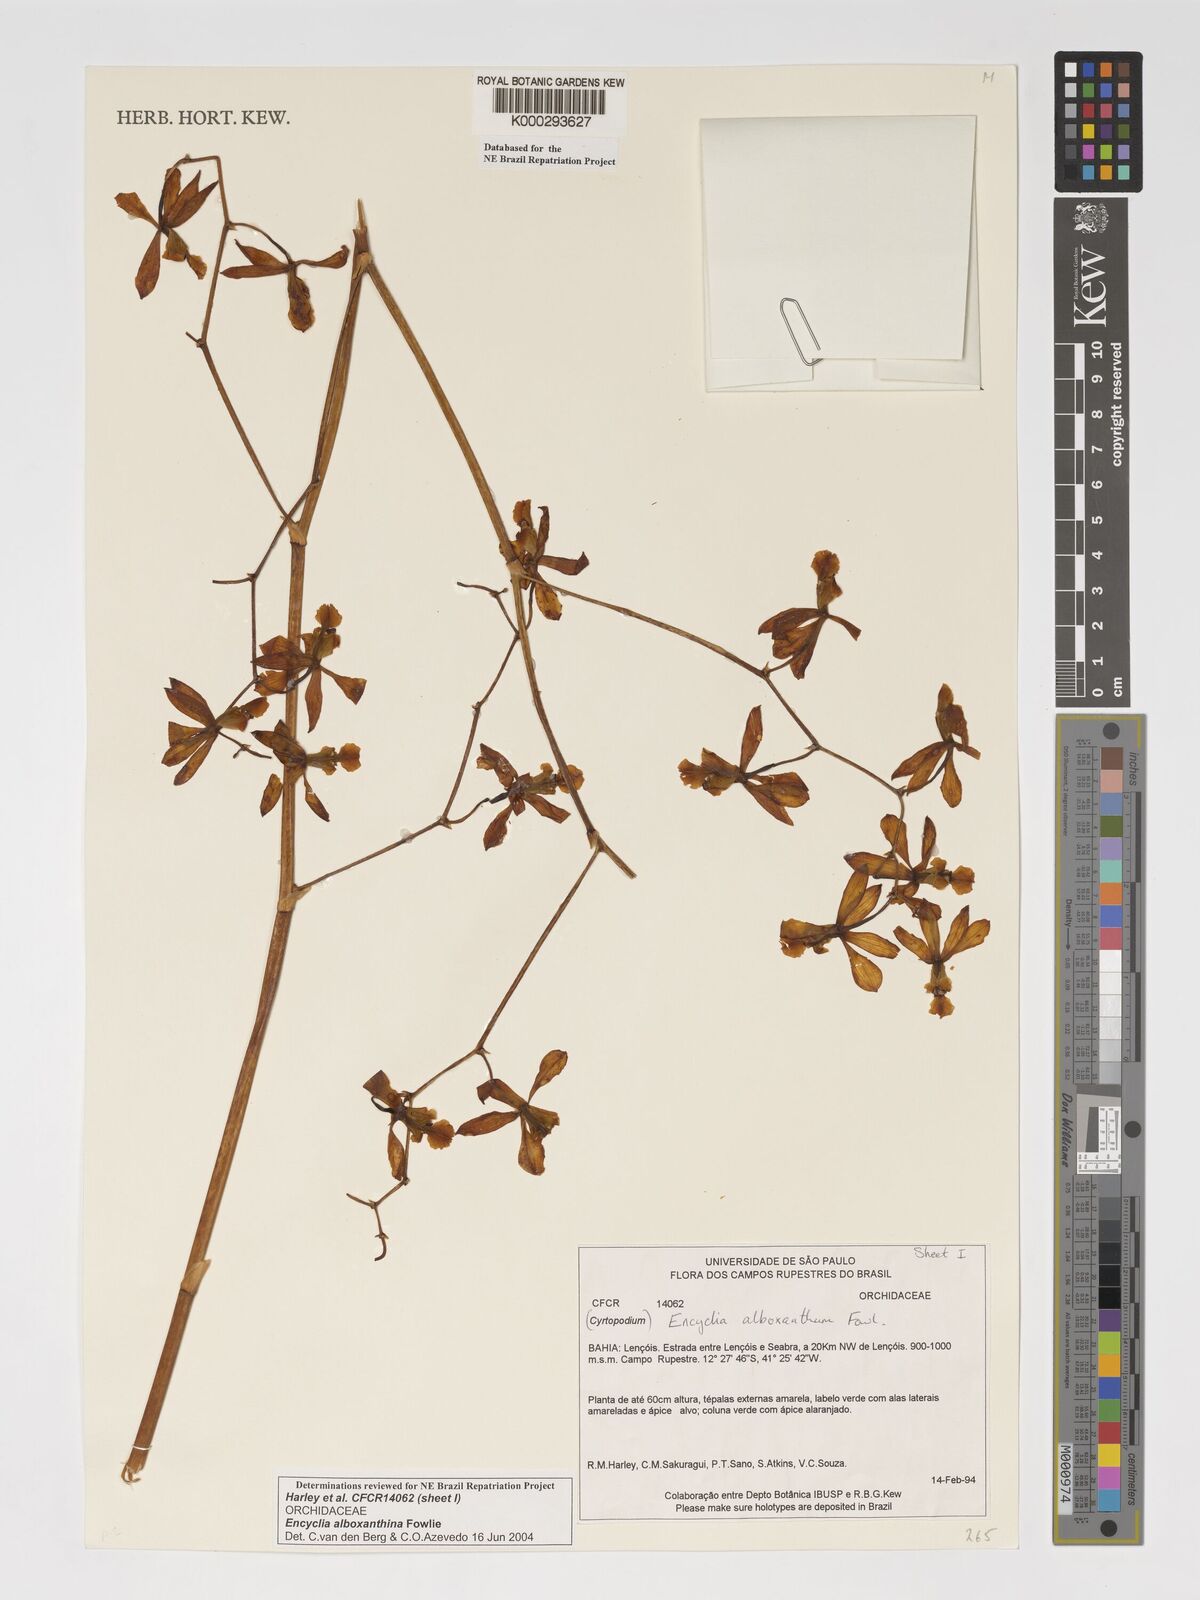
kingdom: Plantae
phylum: Tracheophyta
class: Liliopsida
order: Asparagales
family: Orchidaceae
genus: Encyclia
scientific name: Encyclia alboxanthina
